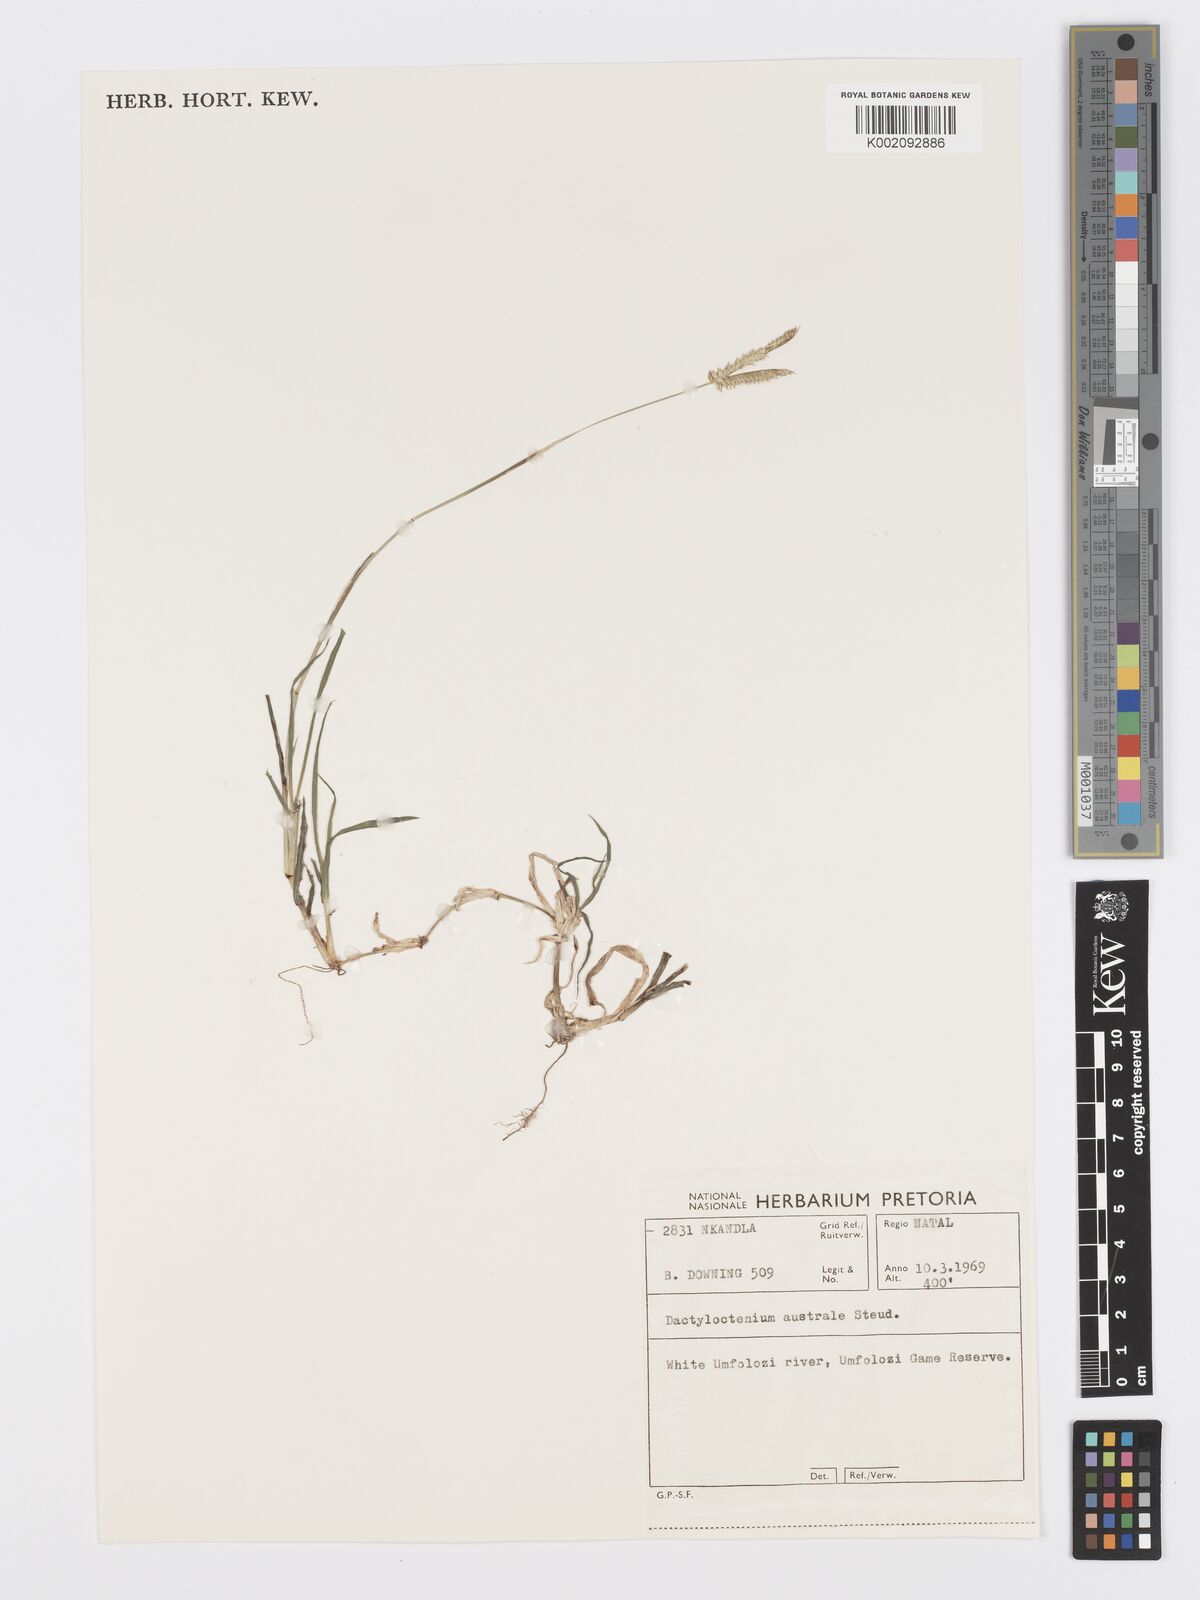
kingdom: Plantae
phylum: Tracheophyta
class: Liliopsida
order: Poales
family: Poaceae
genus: Dactyloctenium
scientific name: Dactyloctenium australe
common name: Durban grass
